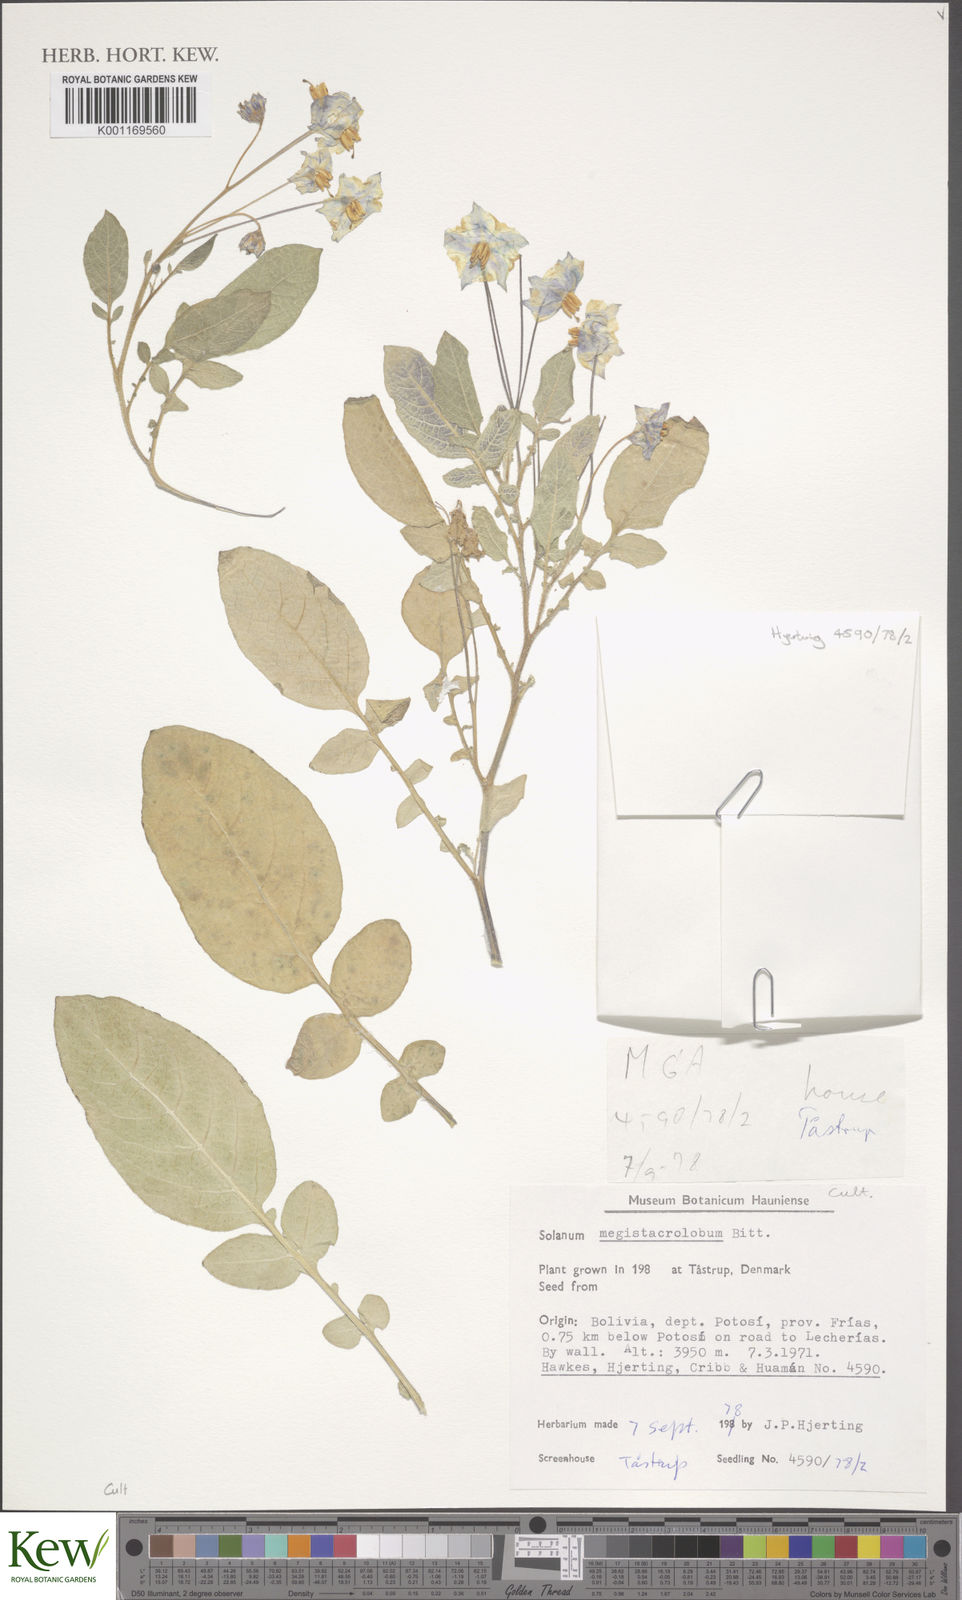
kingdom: Plantae
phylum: Tracheophyta
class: Magnoliopsida
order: Solanales
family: Solanaceae
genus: Solanum
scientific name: Solanum boliviense
